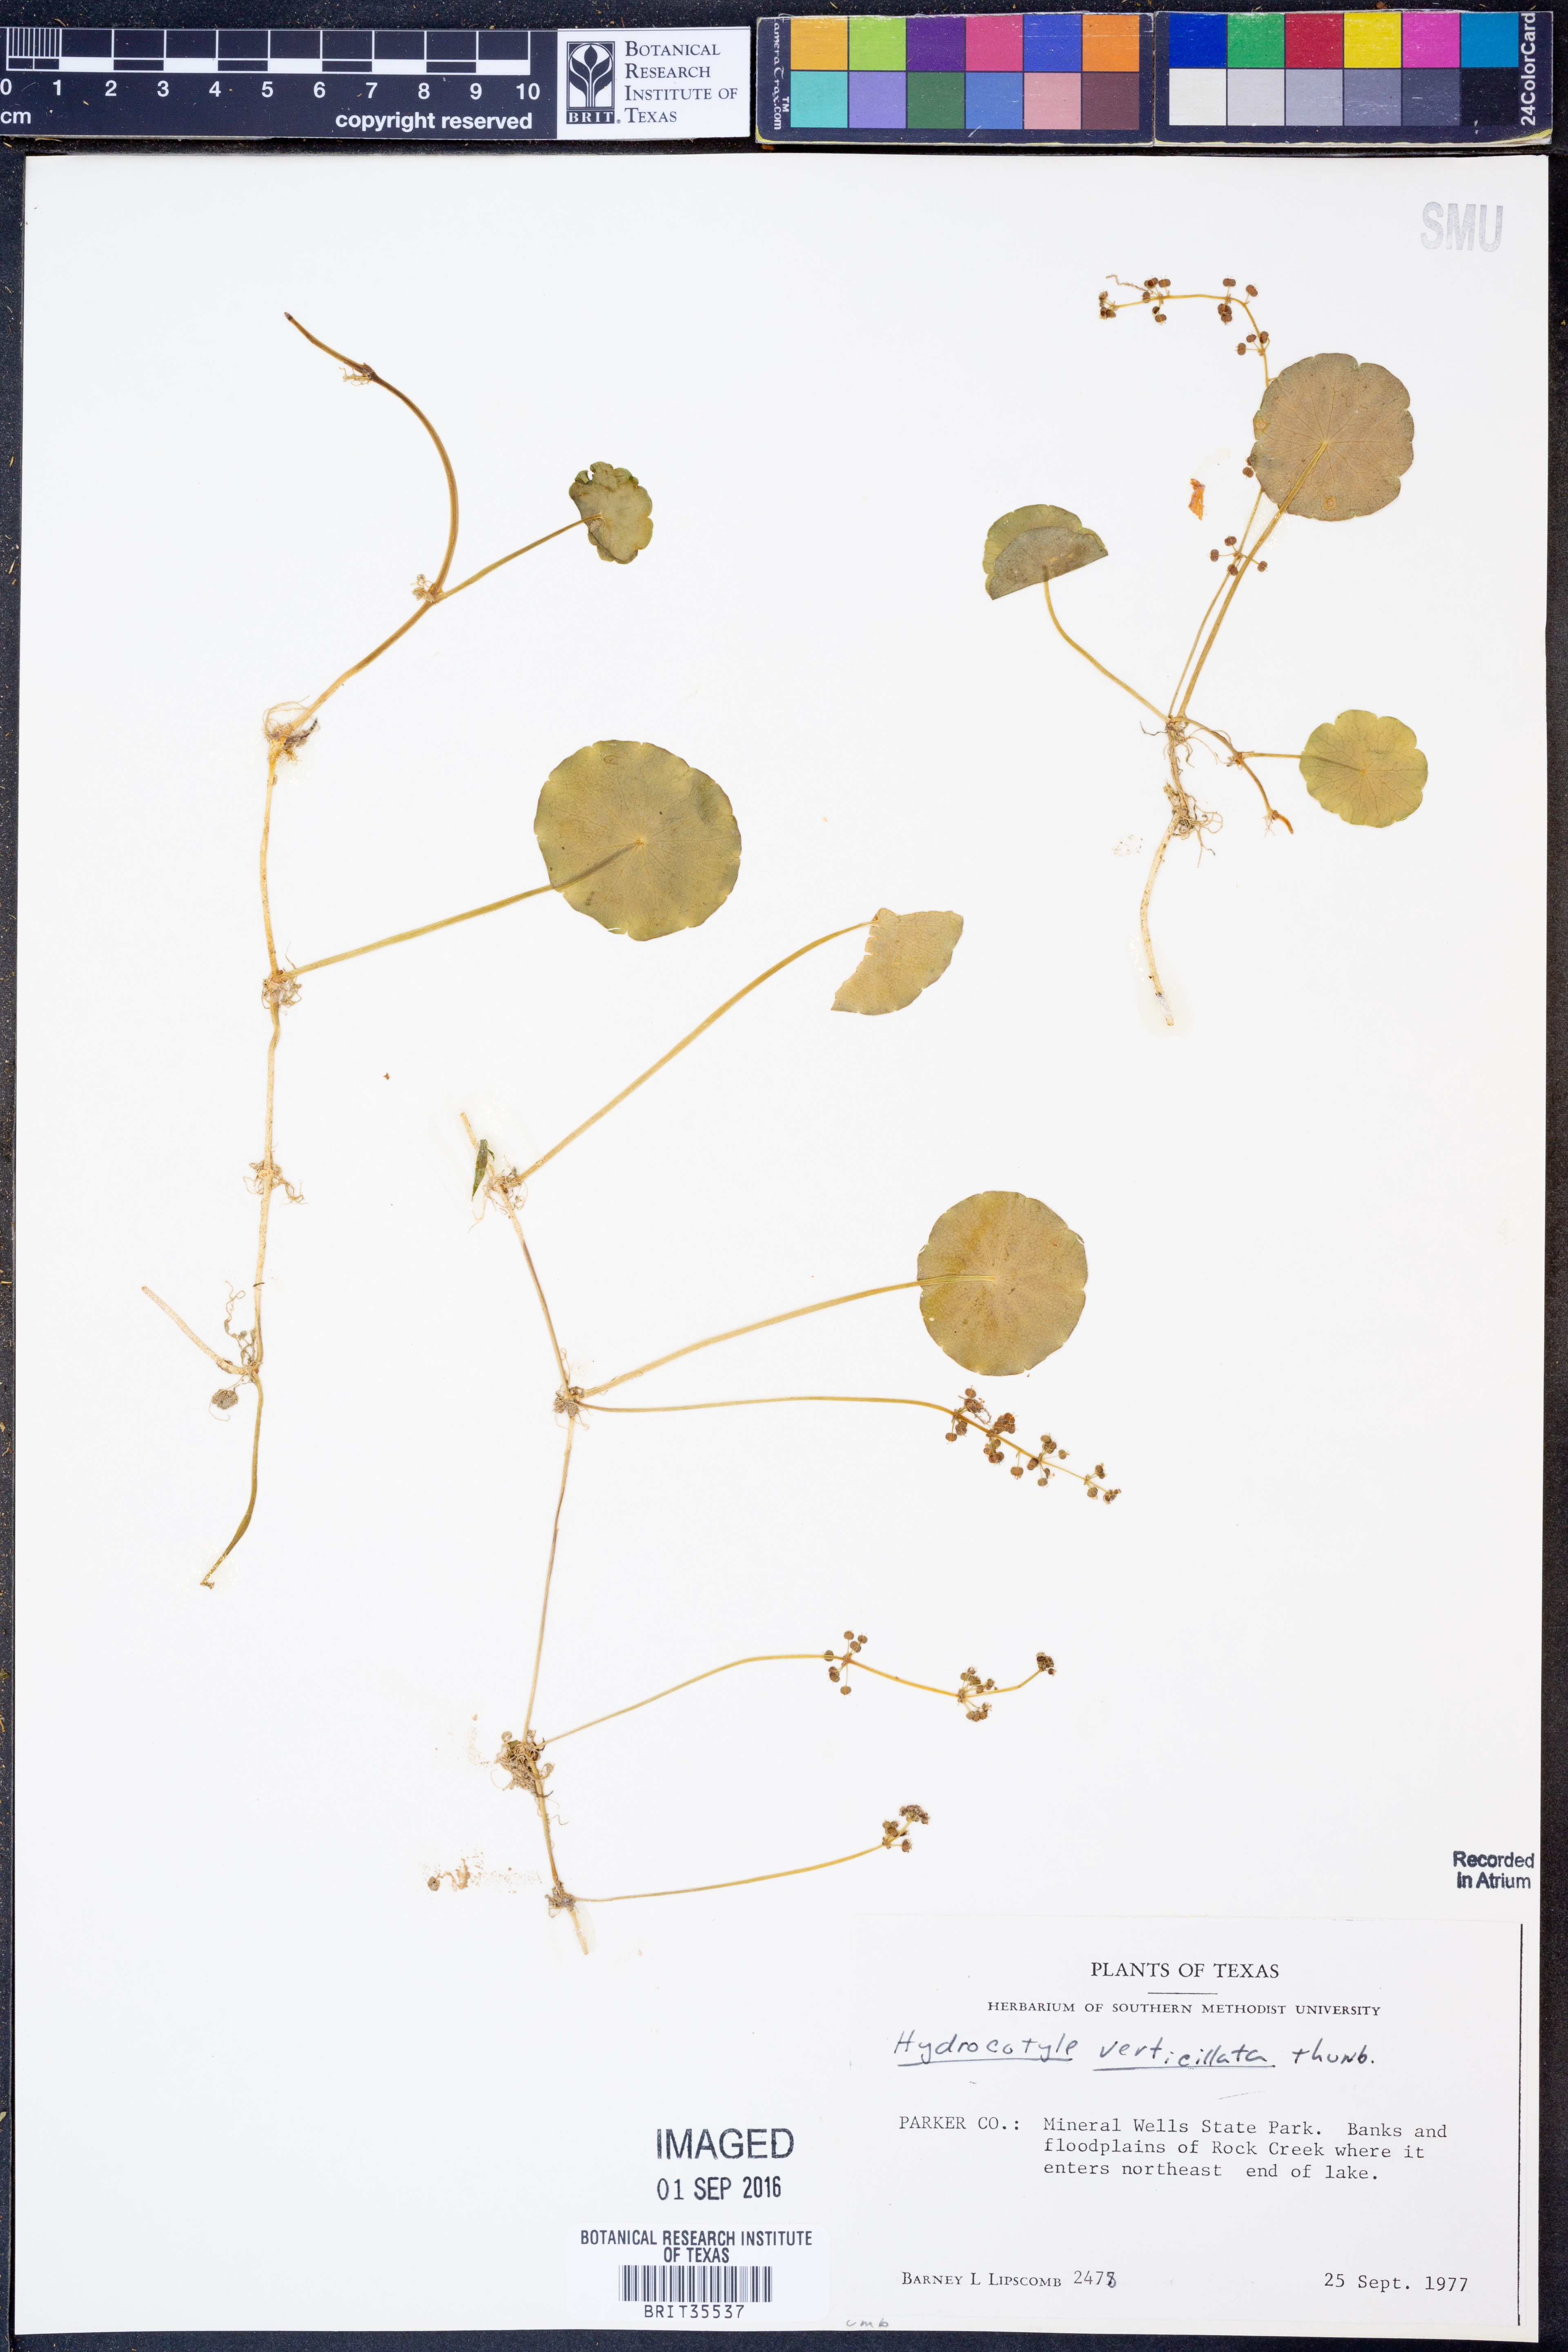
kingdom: Plantae
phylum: Tracheophyta
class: Magnoliopsida
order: Apiales
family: Araliaceae
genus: Hydrocotyle
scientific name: Hydrocotyle verticillata
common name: Whorled marshpennywort
